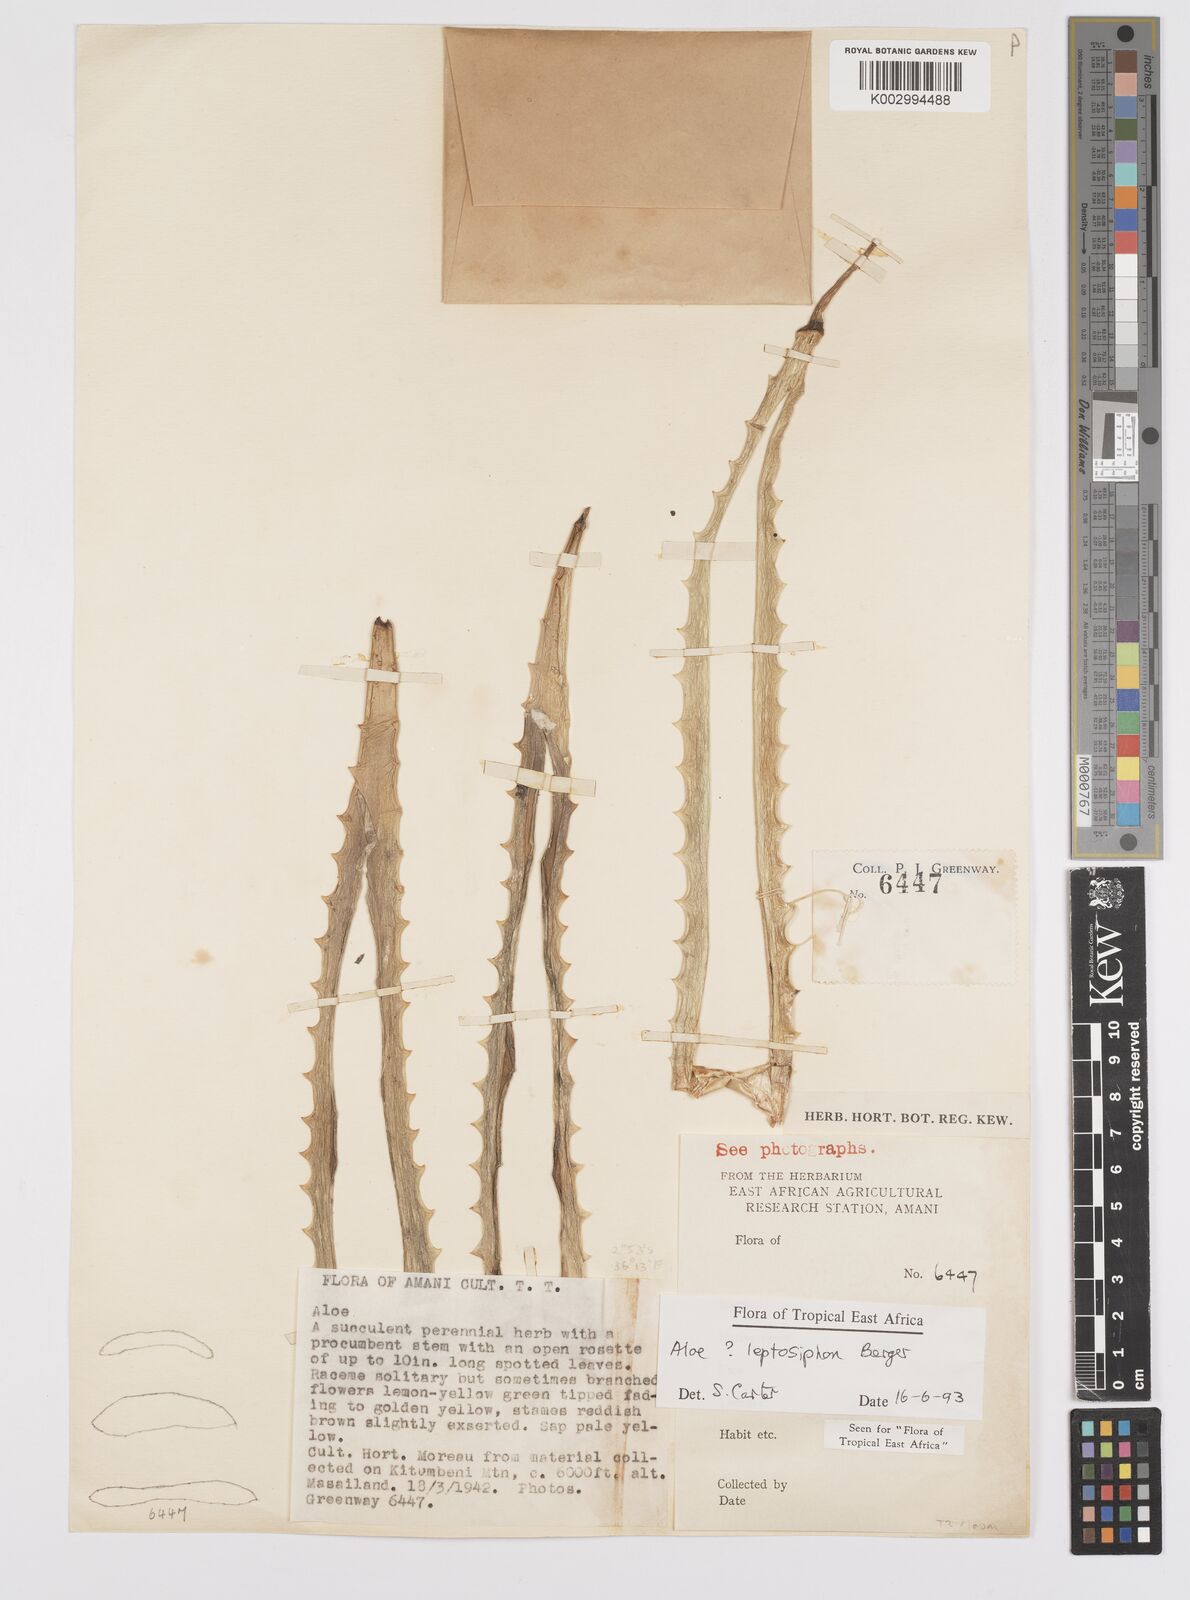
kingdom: Plantae
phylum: Tracheophyta
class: Liliopsida
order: Asparagales
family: Asphodelaceae
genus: Aloe
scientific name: Aloe leptosiphon
